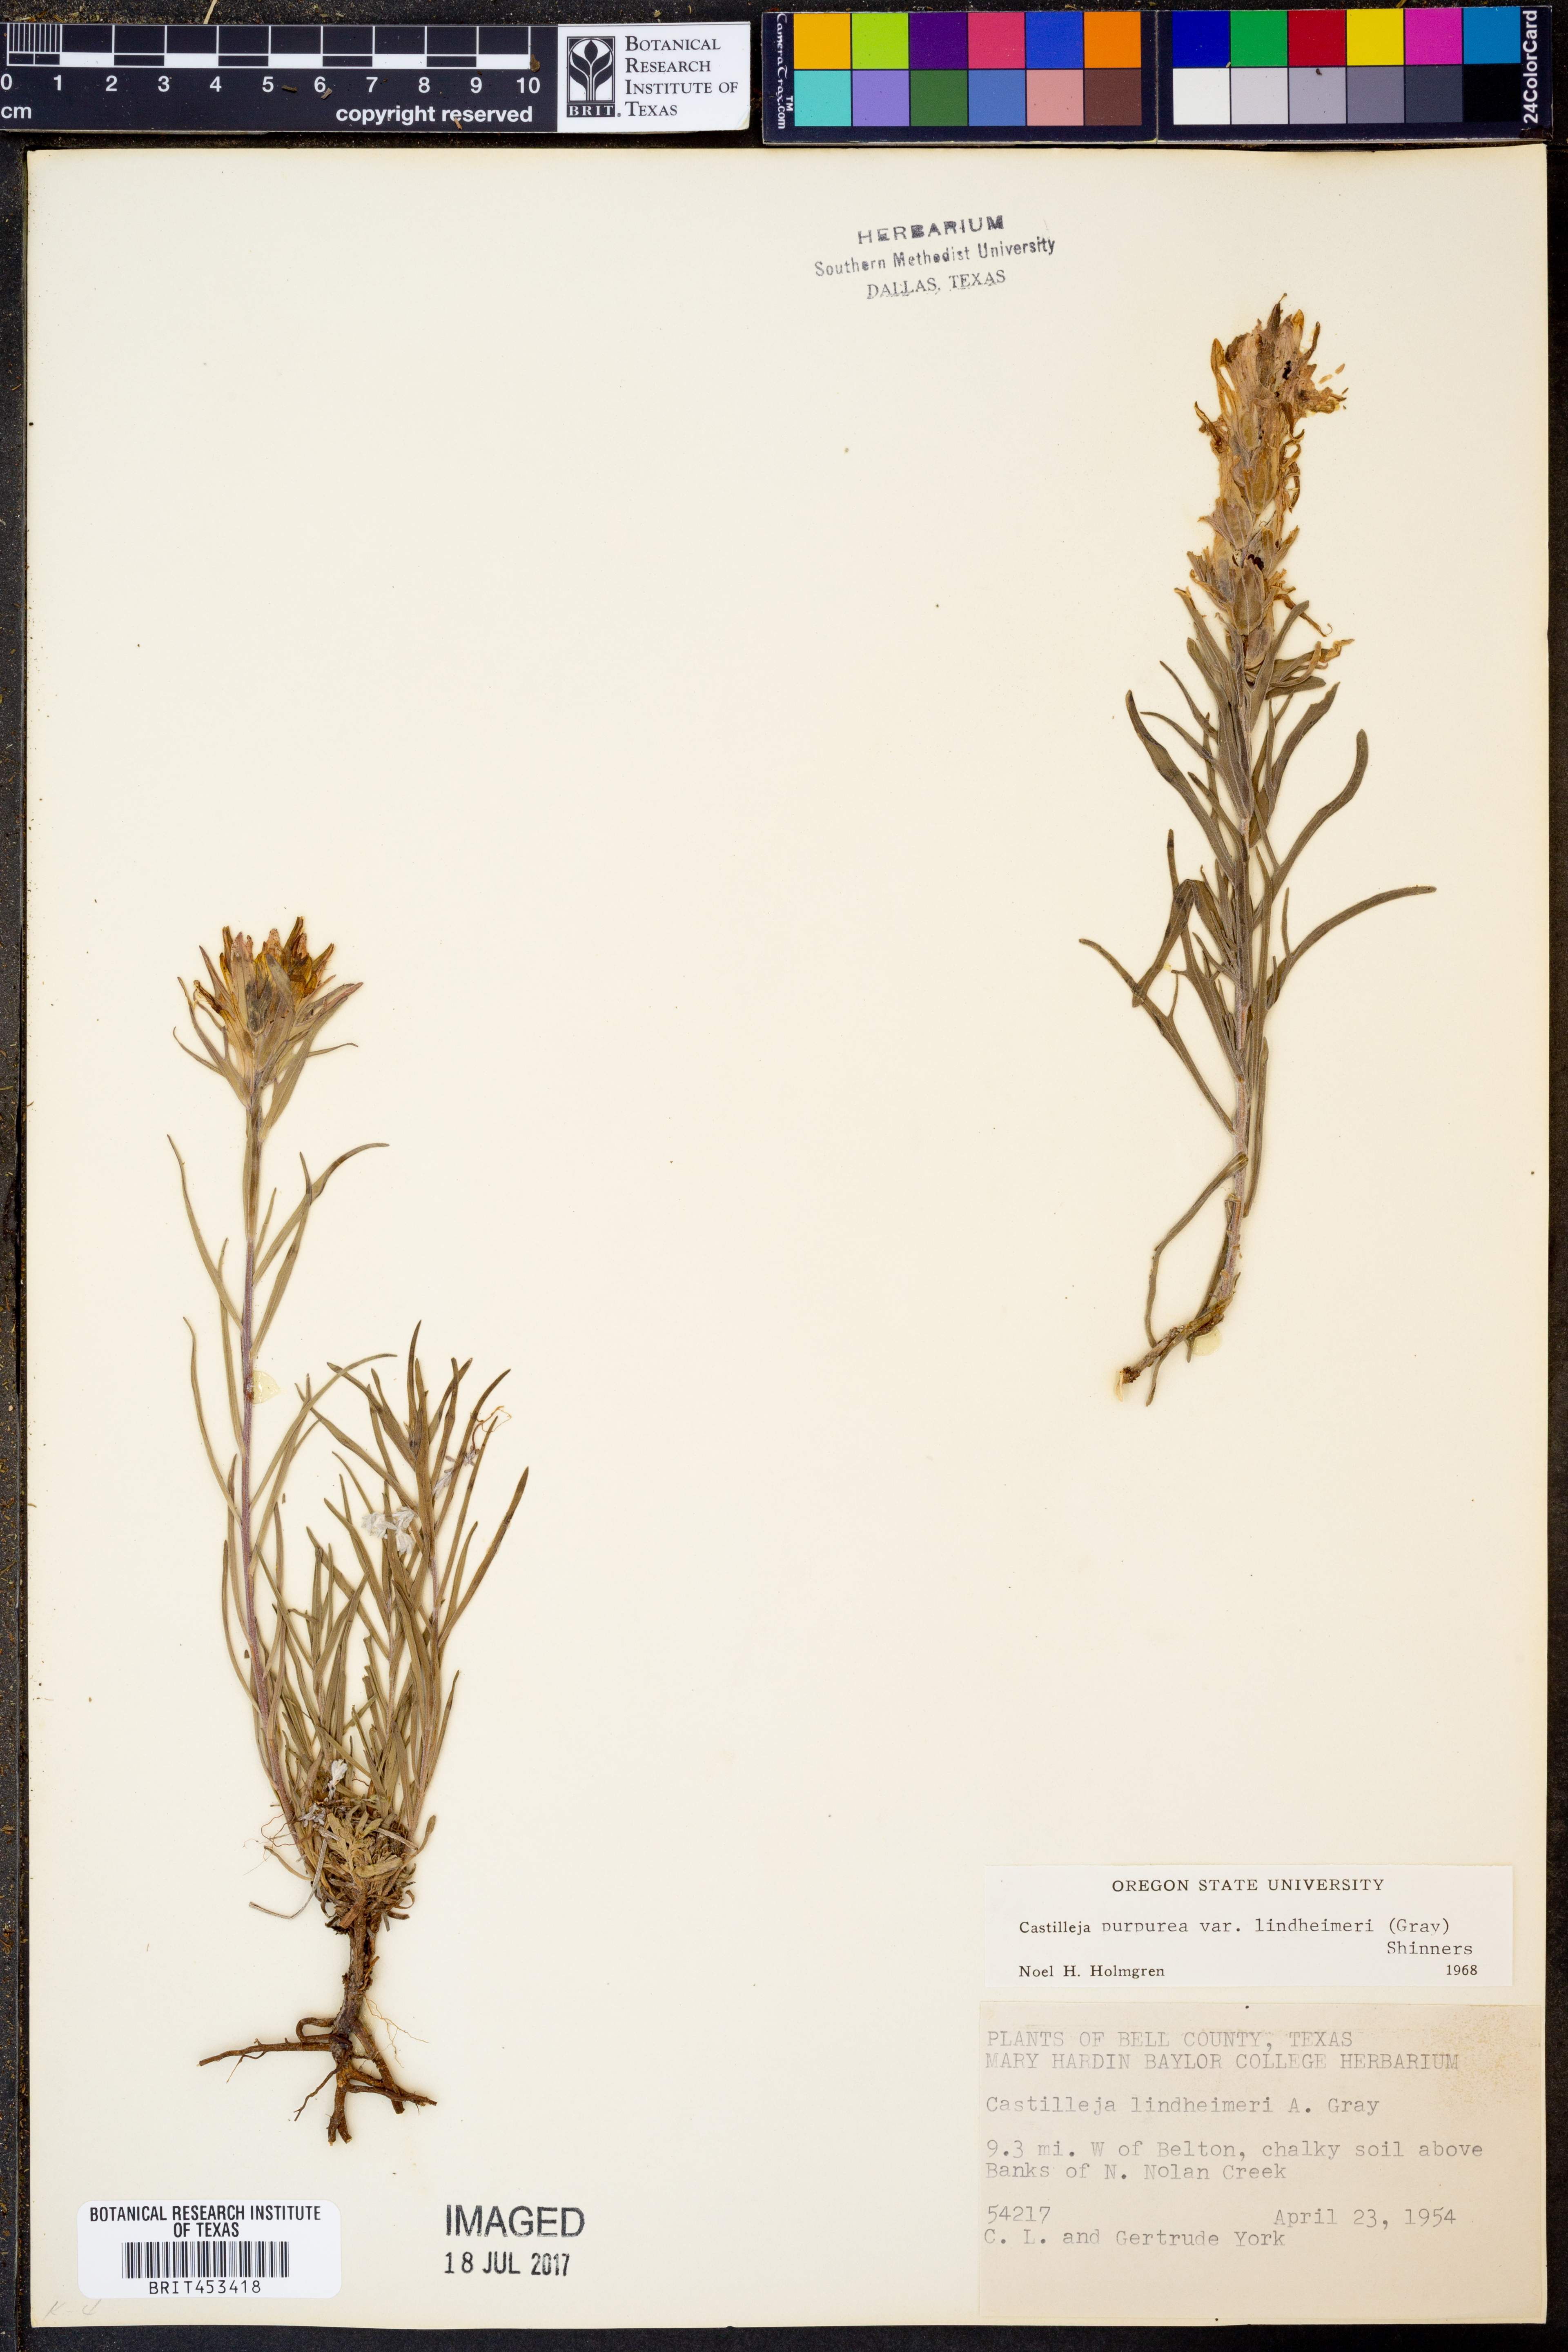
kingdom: Plantae
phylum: Tracheophyta
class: Magnoliopsida
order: Lamiales
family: Orobanchaceae
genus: Castilleja
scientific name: Castilleja lindheimeri
